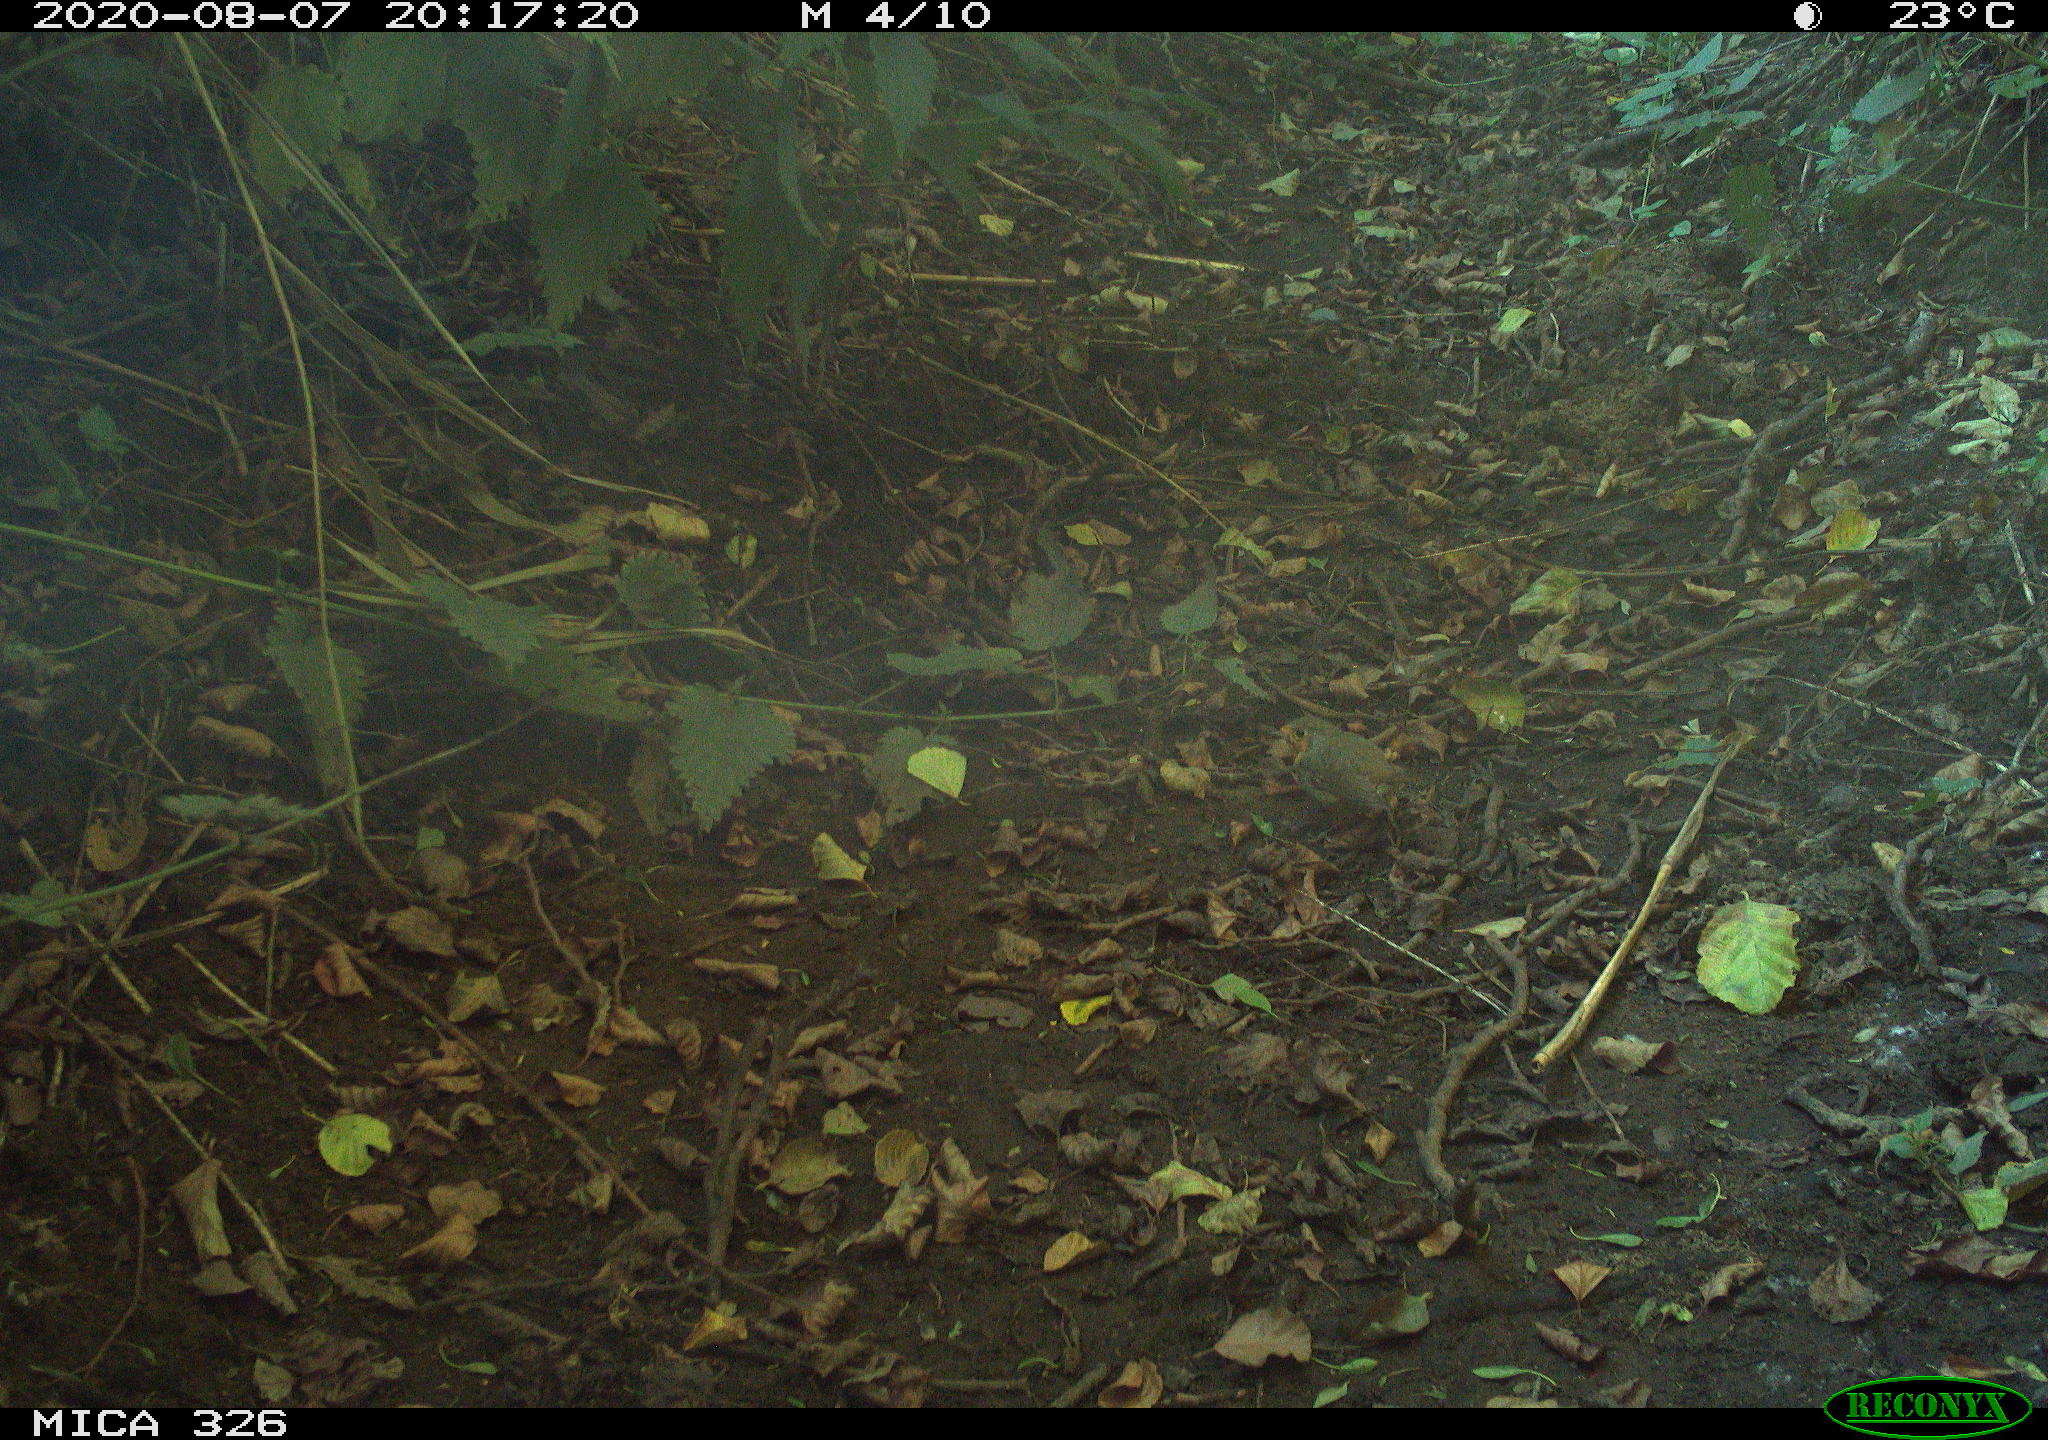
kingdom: Animalia
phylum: Chordata
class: Aves
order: Passeriformes
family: Muscicapidae
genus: Erithacus
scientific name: Erithacus rubecula
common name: European robin
